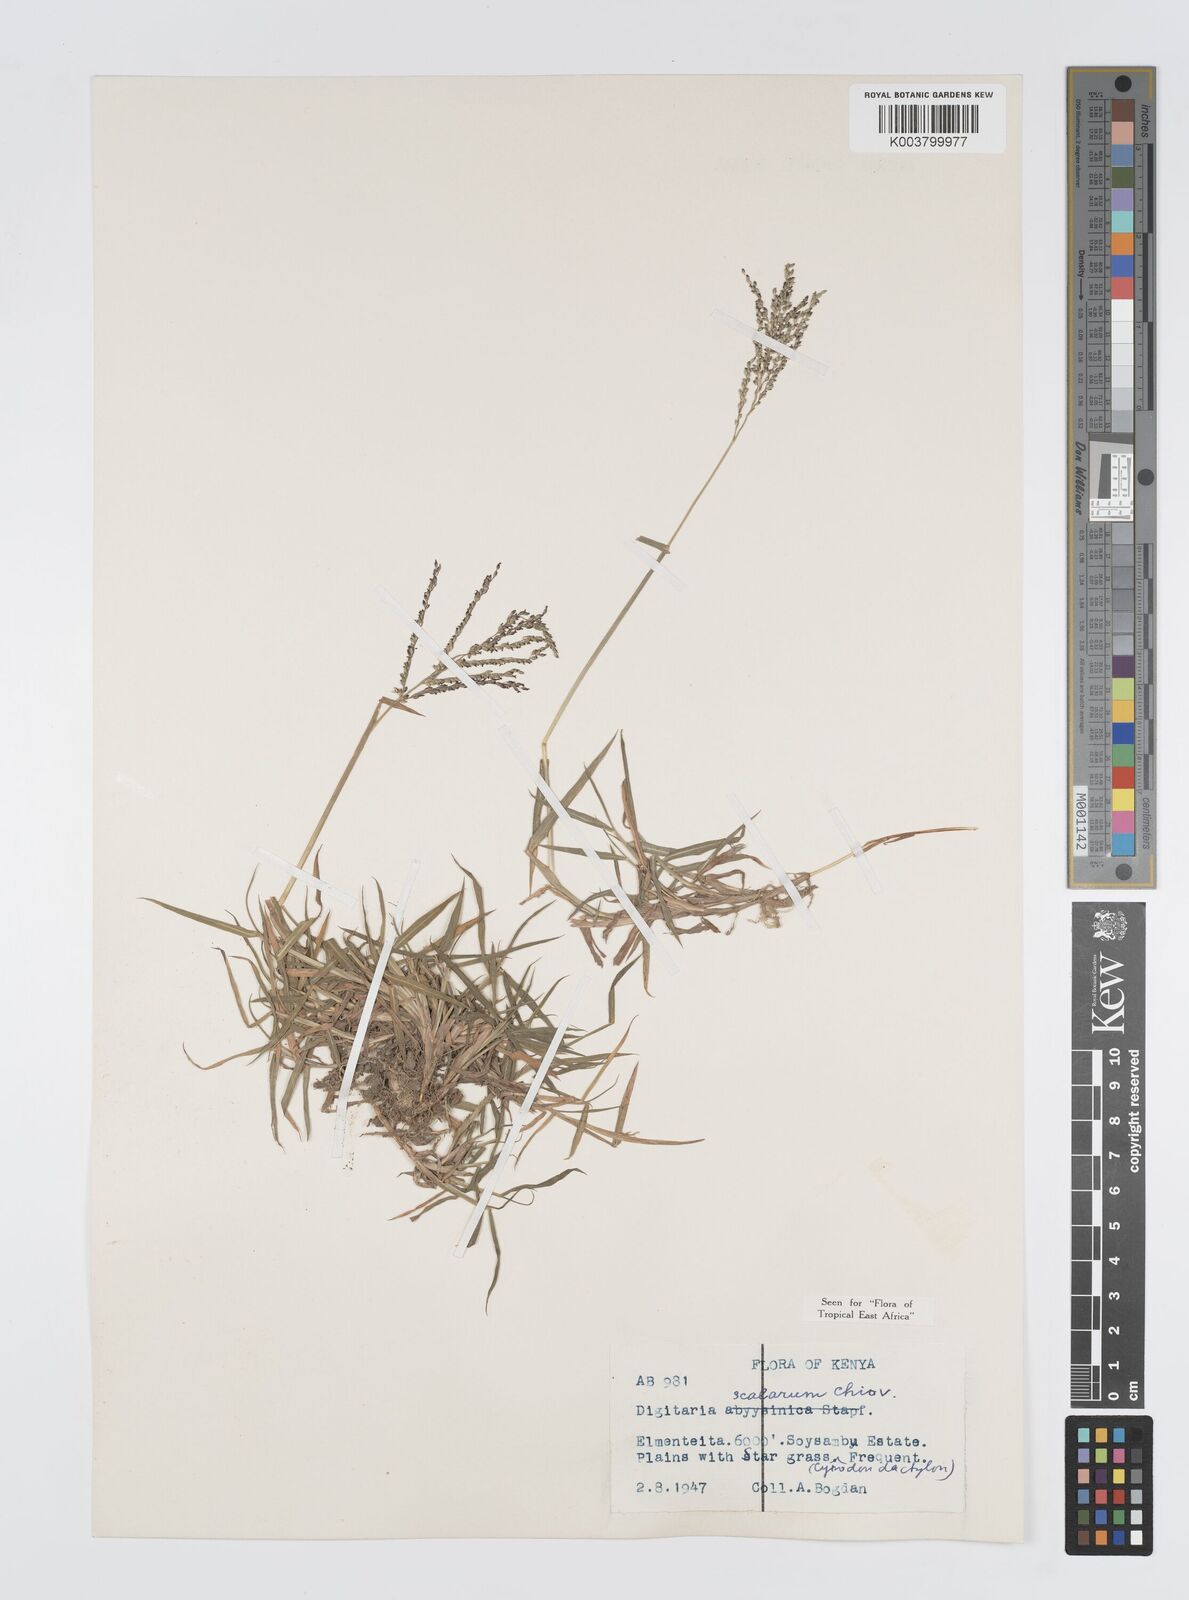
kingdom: Plantae
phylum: Tracheophyta
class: Liliopsida
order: Poales
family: Poaceae
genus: Digitaria
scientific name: Digitaria abyssinica
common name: African couchgrass
